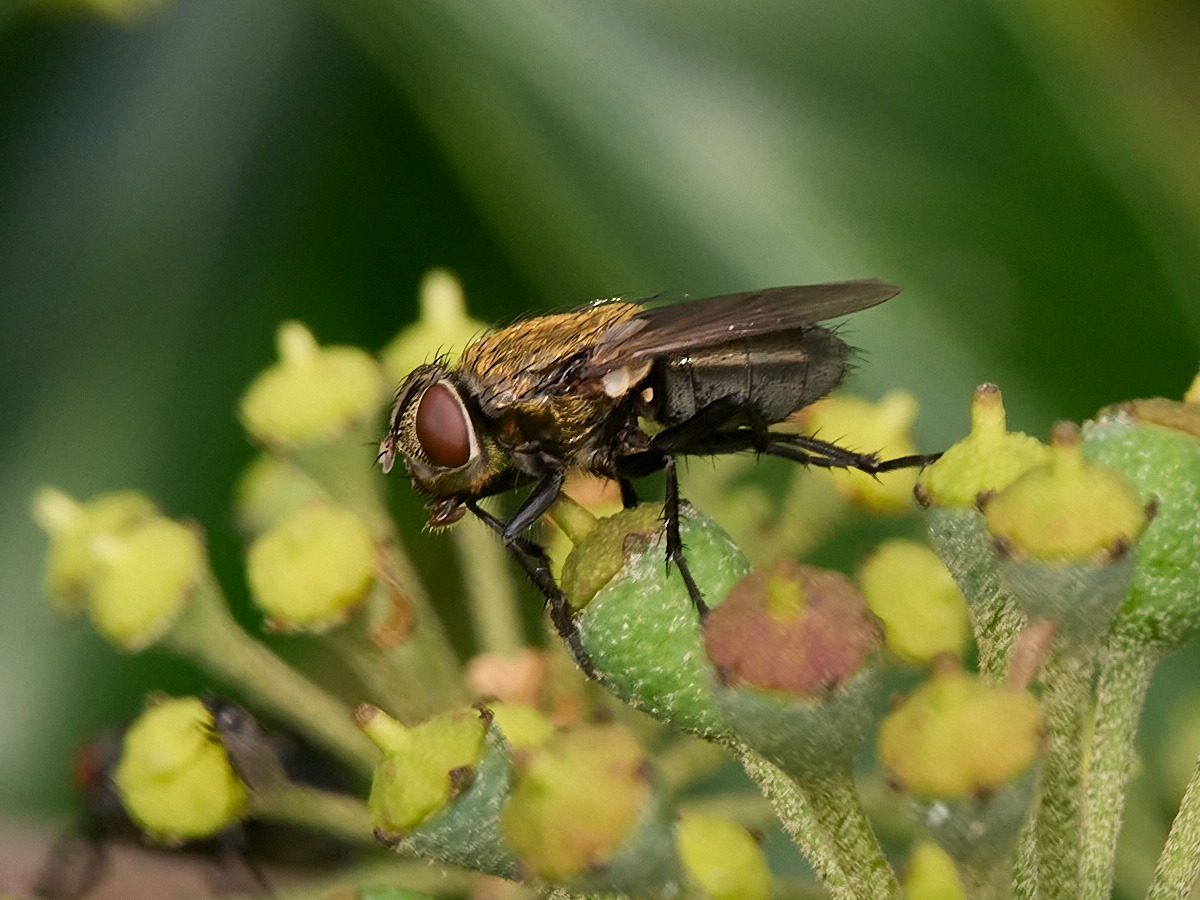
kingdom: Animalia
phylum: Arthropoda
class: Insecta
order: Diptera
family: Polleniidae
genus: Pollenia
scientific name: Pollenia
